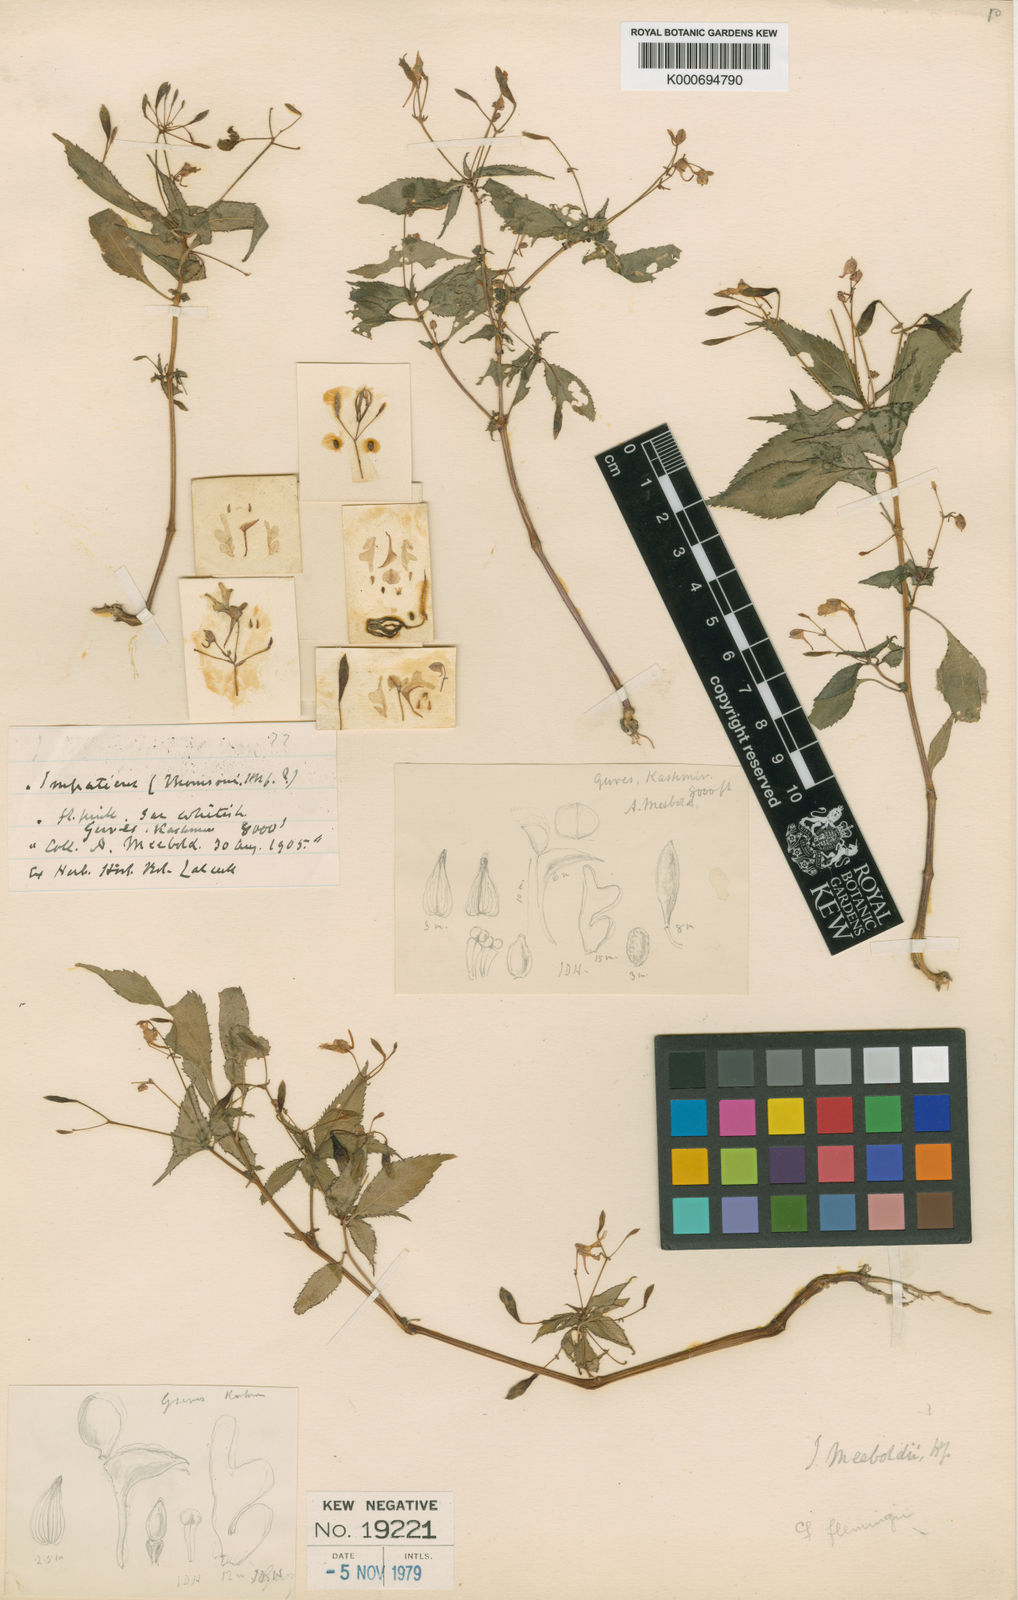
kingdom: Plantae
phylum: Tracheophyta
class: Magnoliopsida
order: Ericales
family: Balsaminaceae
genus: Impatiens
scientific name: Impatiens meeboldii
